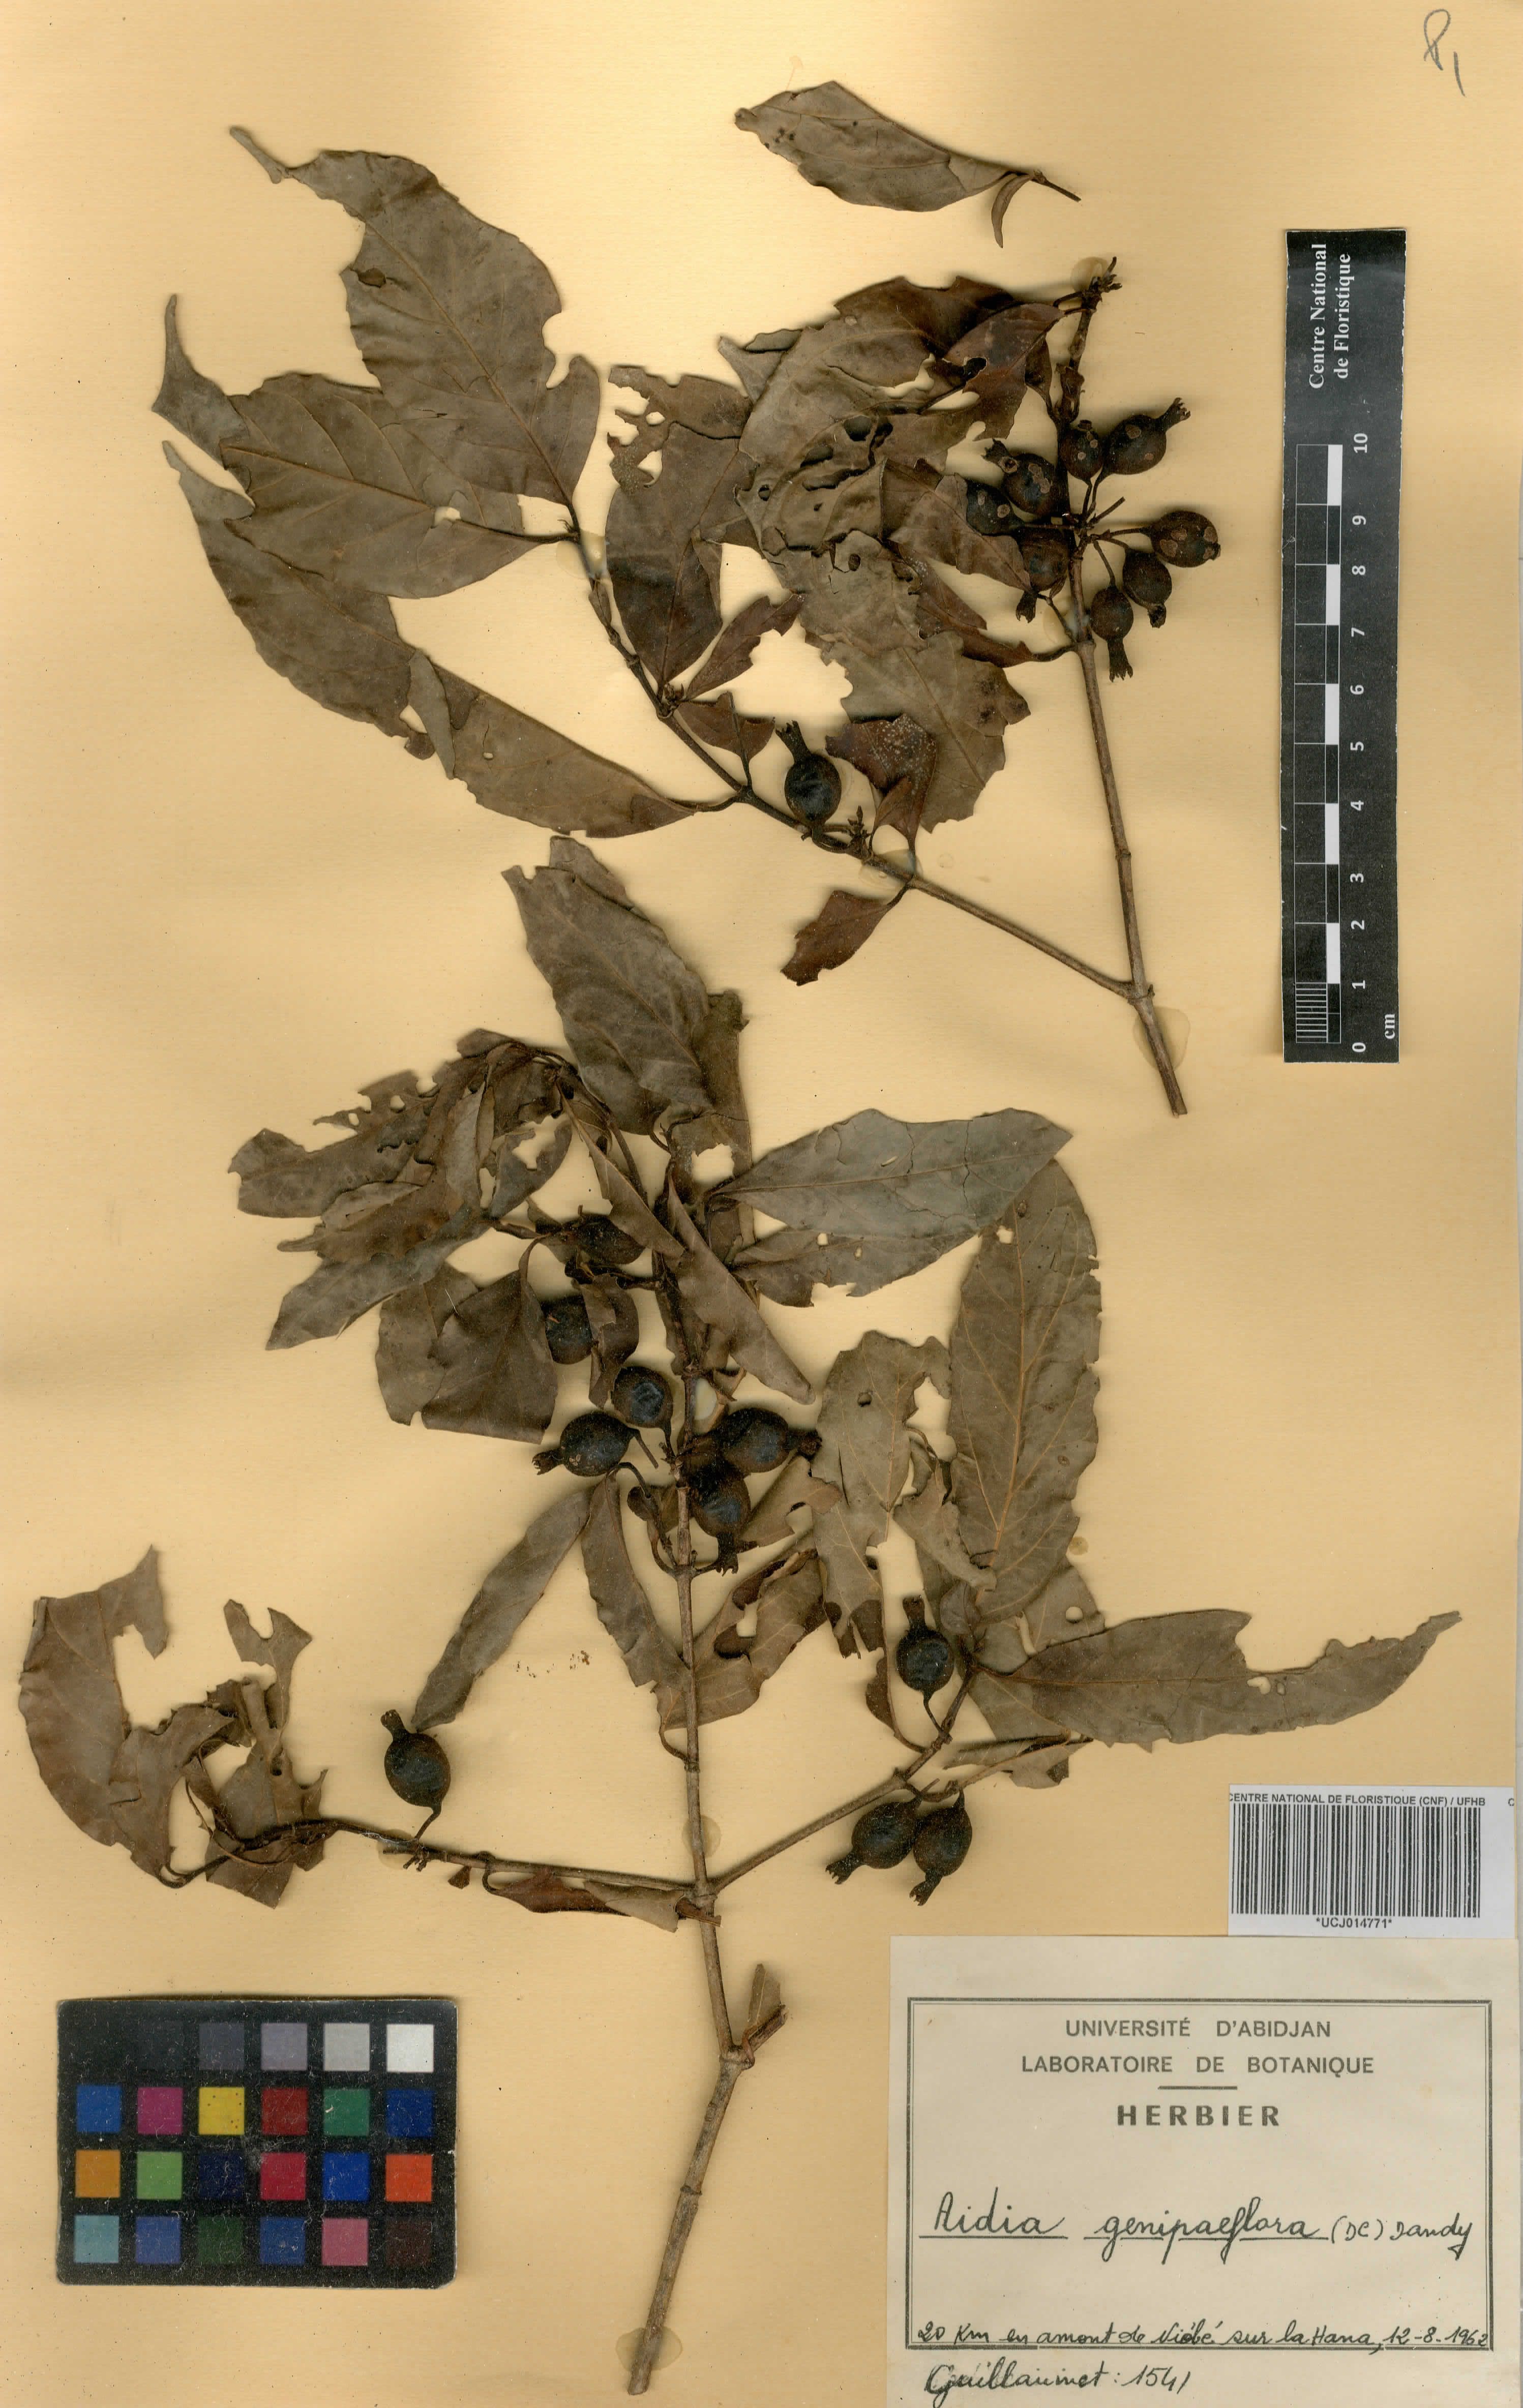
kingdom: Plantae
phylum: Tracheophyta
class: Magnoliopsida
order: Gentianales
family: Rubiaceae
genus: Aidia
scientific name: Aidia genipiflora
